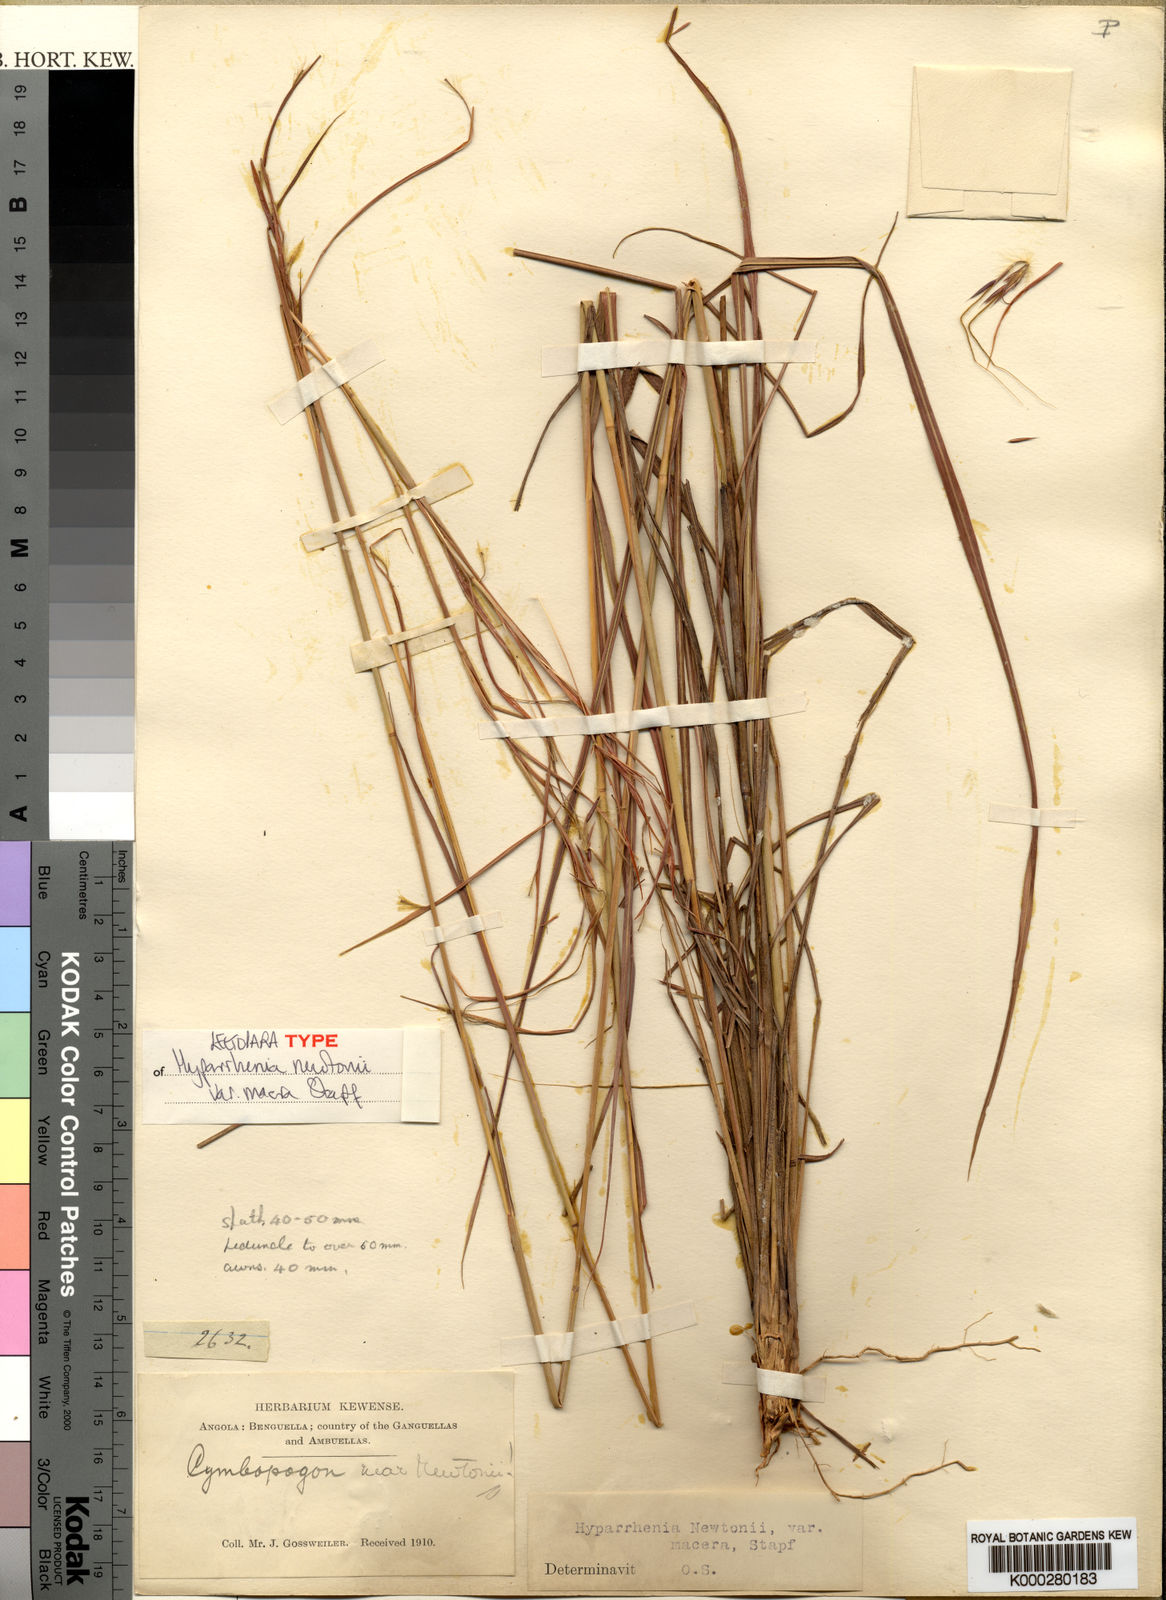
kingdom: Plantae
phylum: Tracheophyta
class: Liliopsida
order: Poales
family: Poaceae
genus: Hyparrhenia
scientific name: Hyparrhenia newtonii
